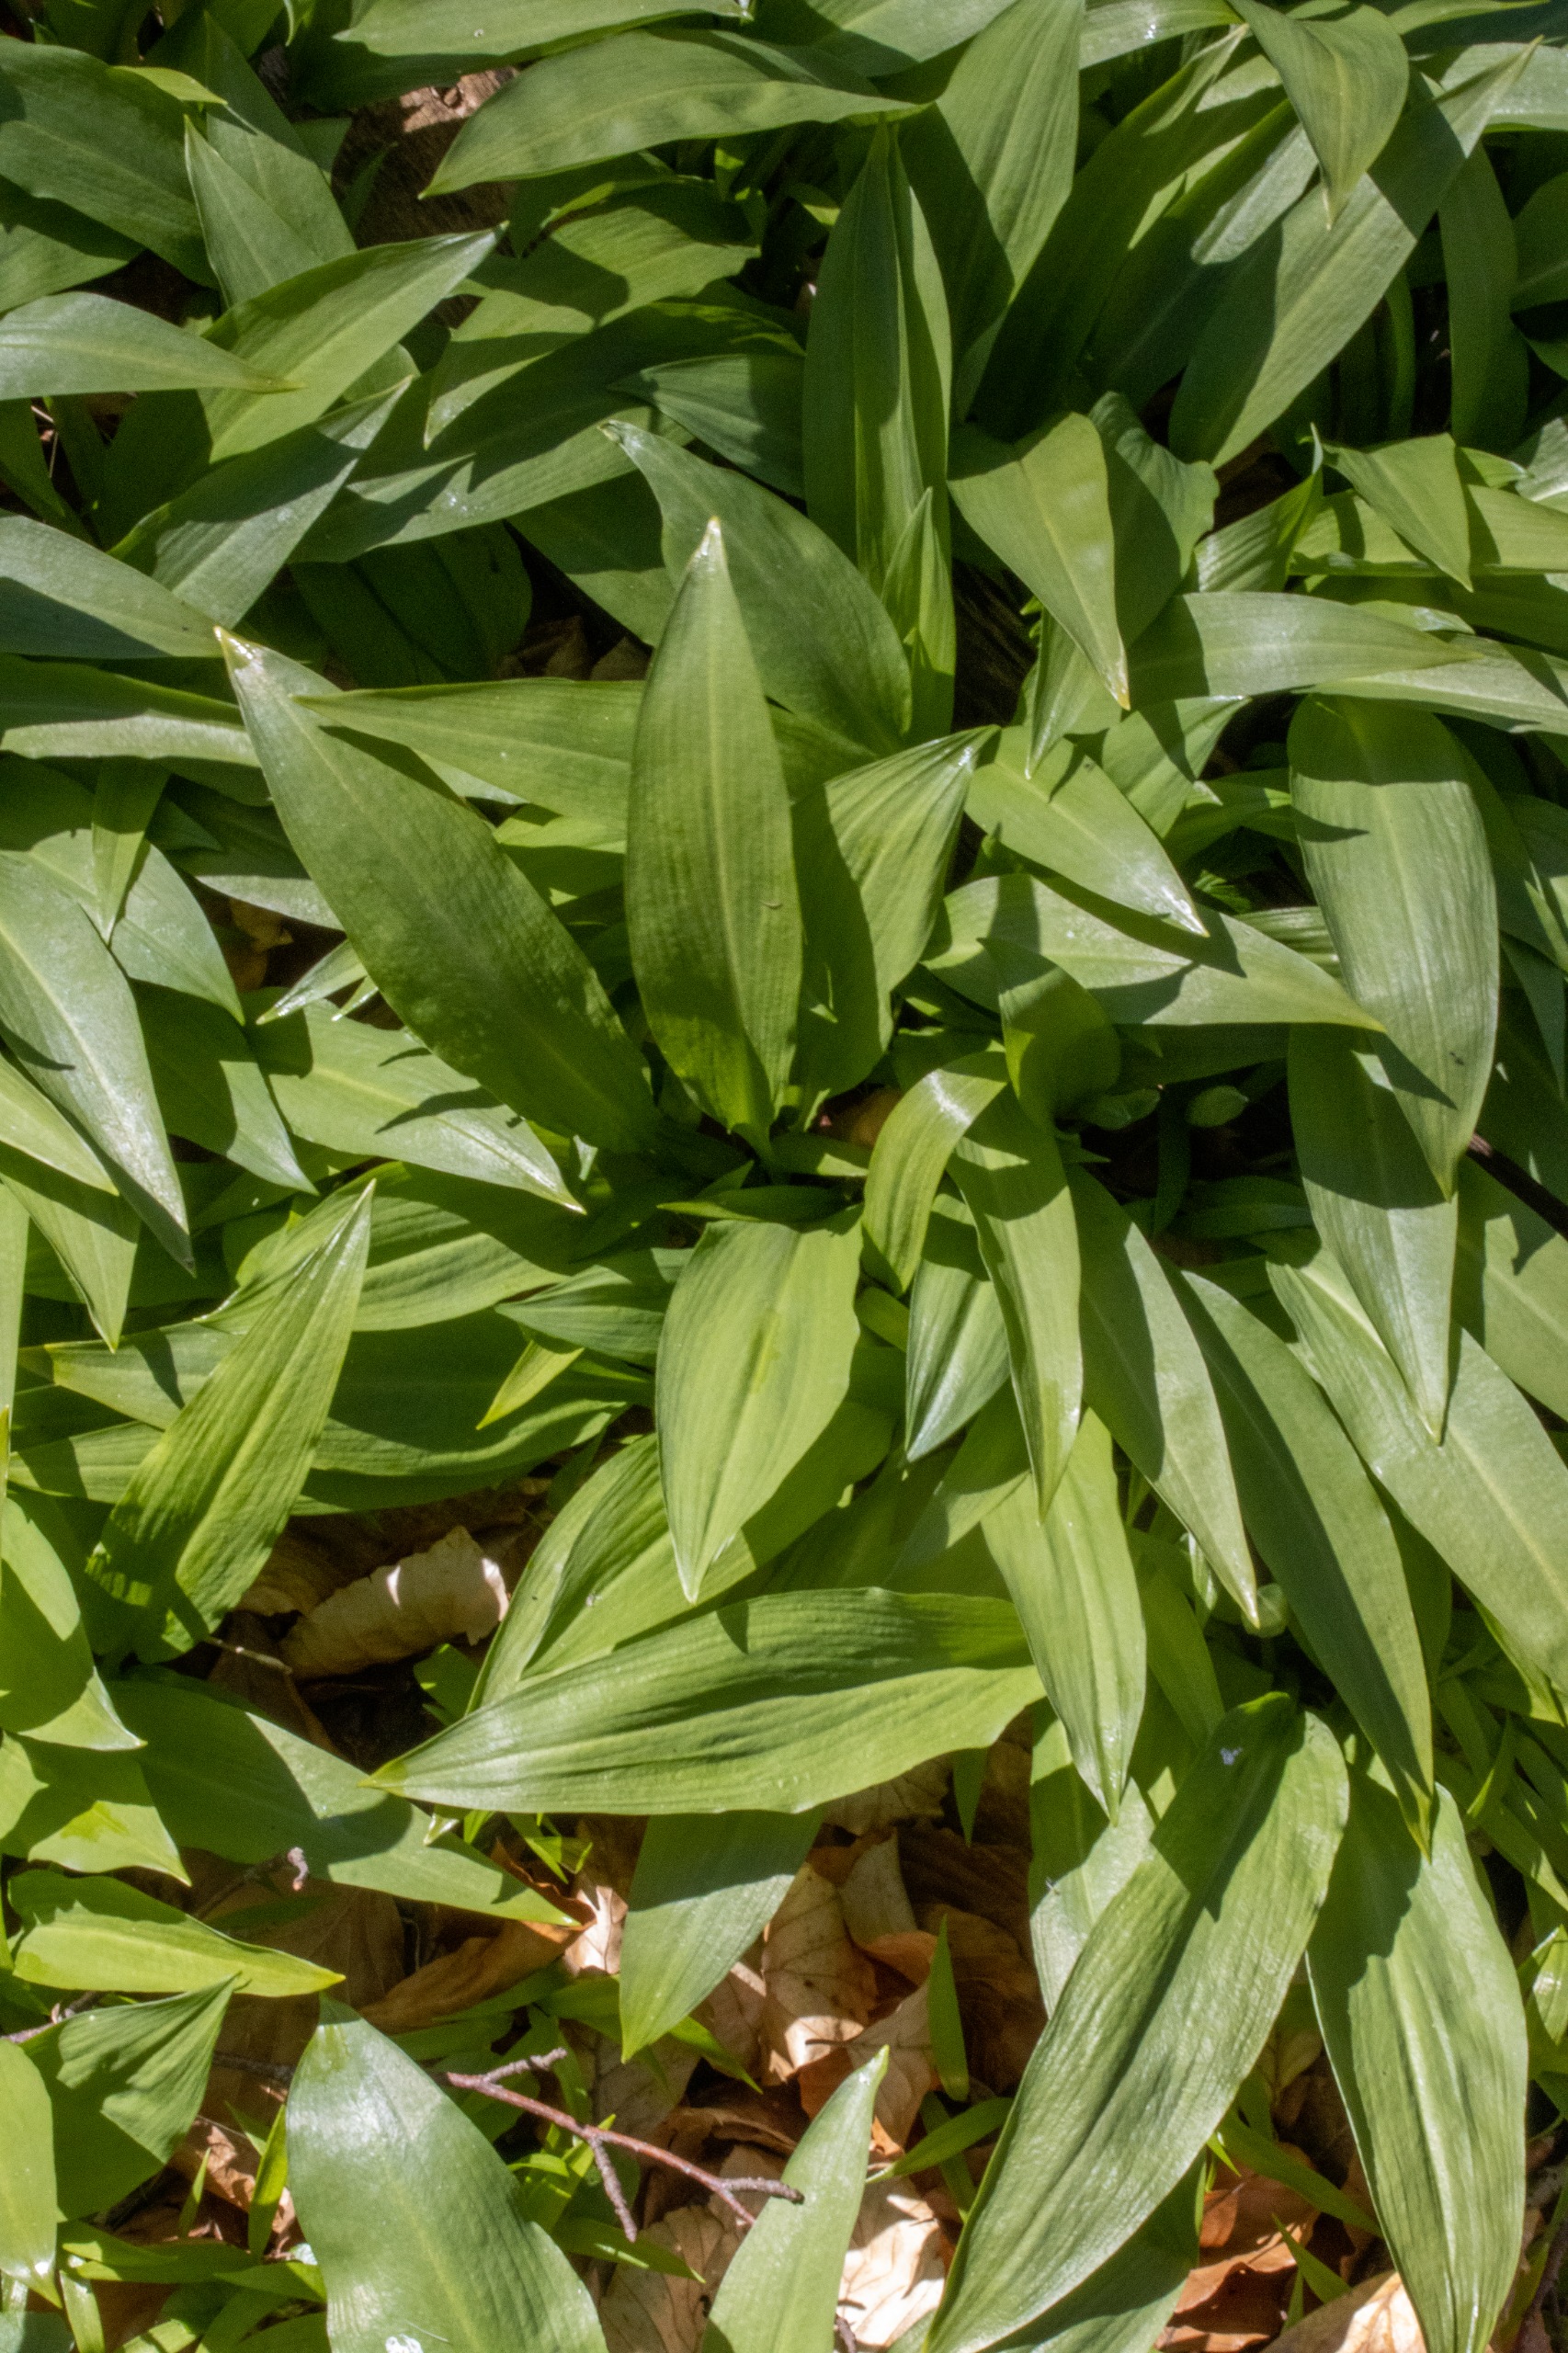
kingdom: Plantae
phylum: Tracheophyta
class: Liliopsida
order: Asparagales
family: Amaryllidaceae
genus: Allium
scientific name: Allium ursinum
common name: Rams-løg
